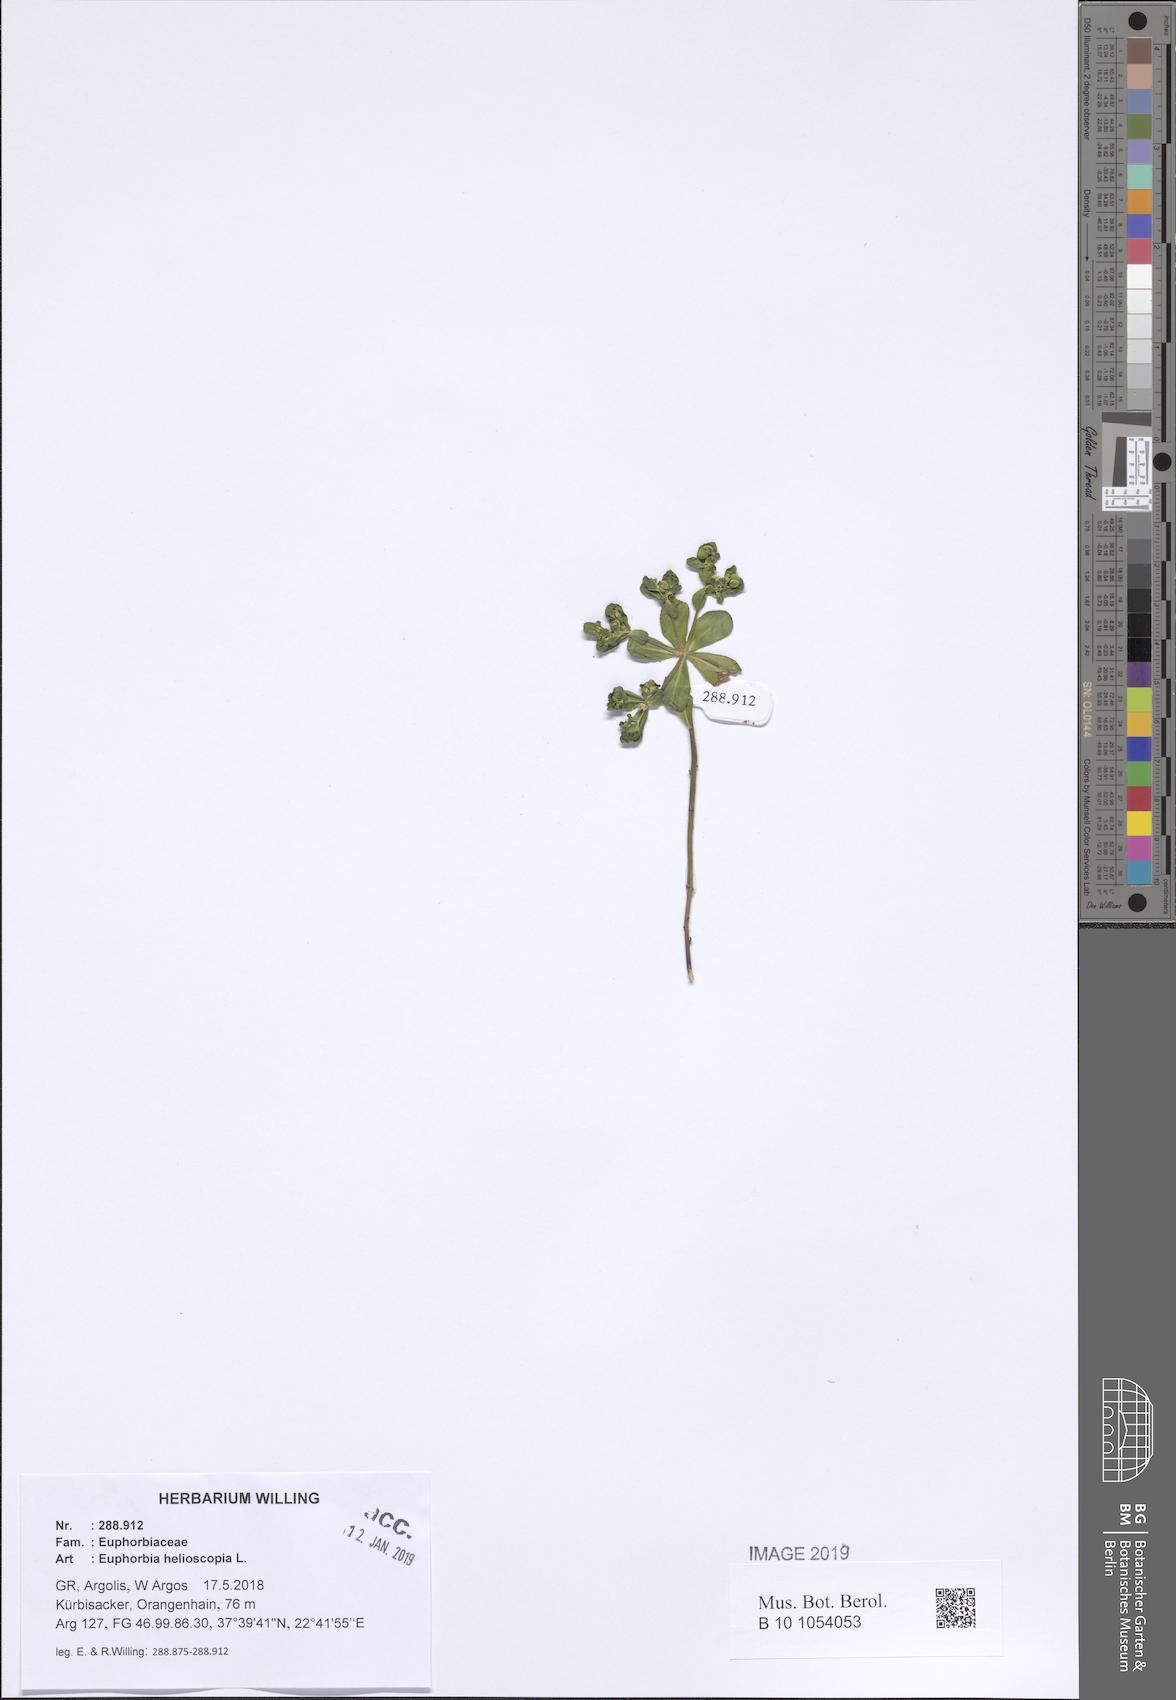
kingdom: Plantae
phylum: Tracheophyta
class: Magnoliopsida
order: Malpighiales
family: Euphorbiaceae
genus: Euphorbia
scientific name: Euphorbia helioscopia
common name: Sun spurge
